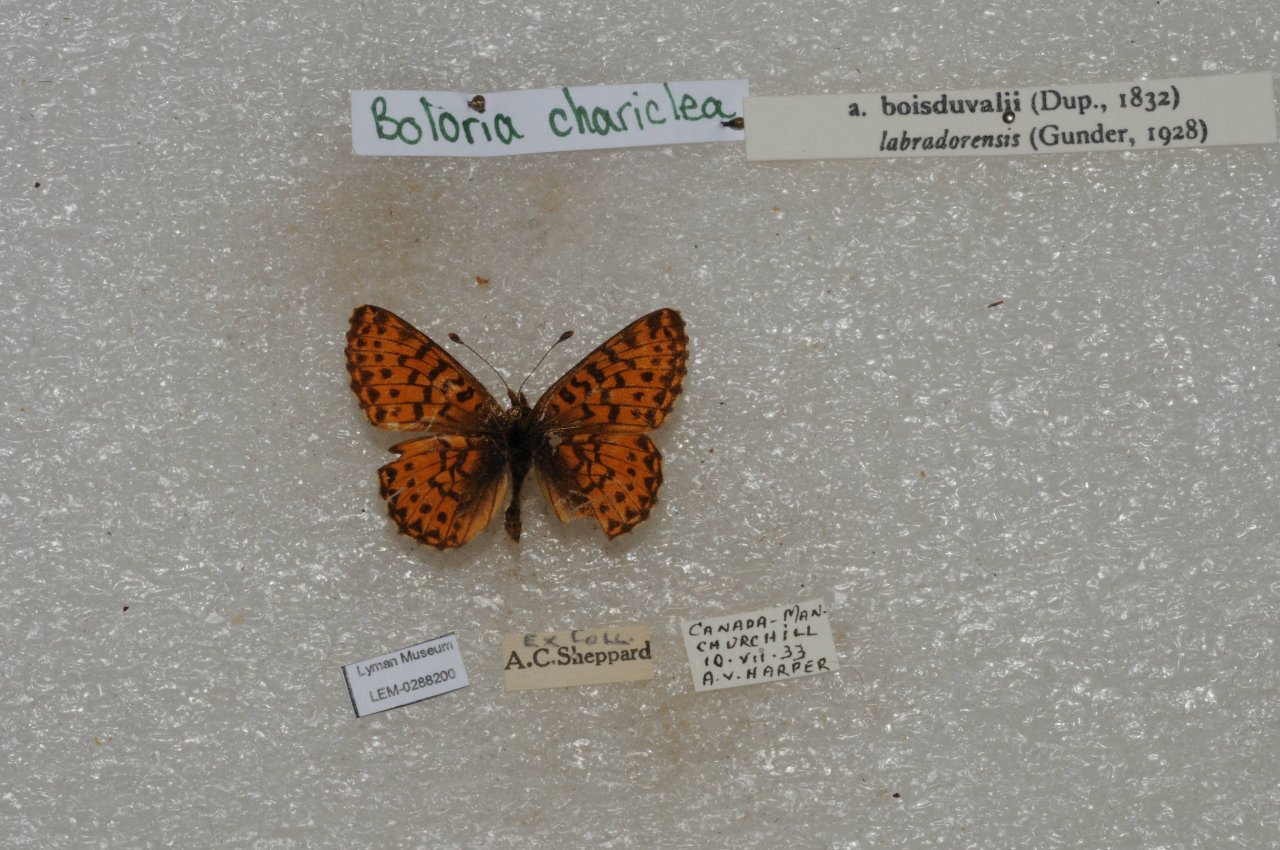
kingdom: Animalia
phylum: Arthropoda
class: Insecta
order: Lepidoptera
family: Nymphalidae
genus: Boloria
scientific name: Boloria chariclea
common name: Arctic Fritillary
